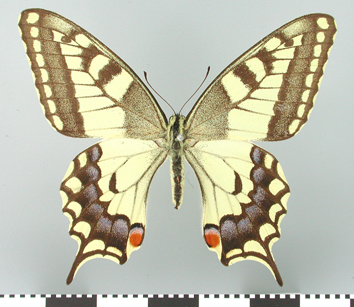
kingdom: Animalia
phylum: Arthropoda
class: Insecta
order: Lepidoptera
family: Papilionidae
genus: Papilio
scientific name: Papilio machaon
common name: Swallowtail
